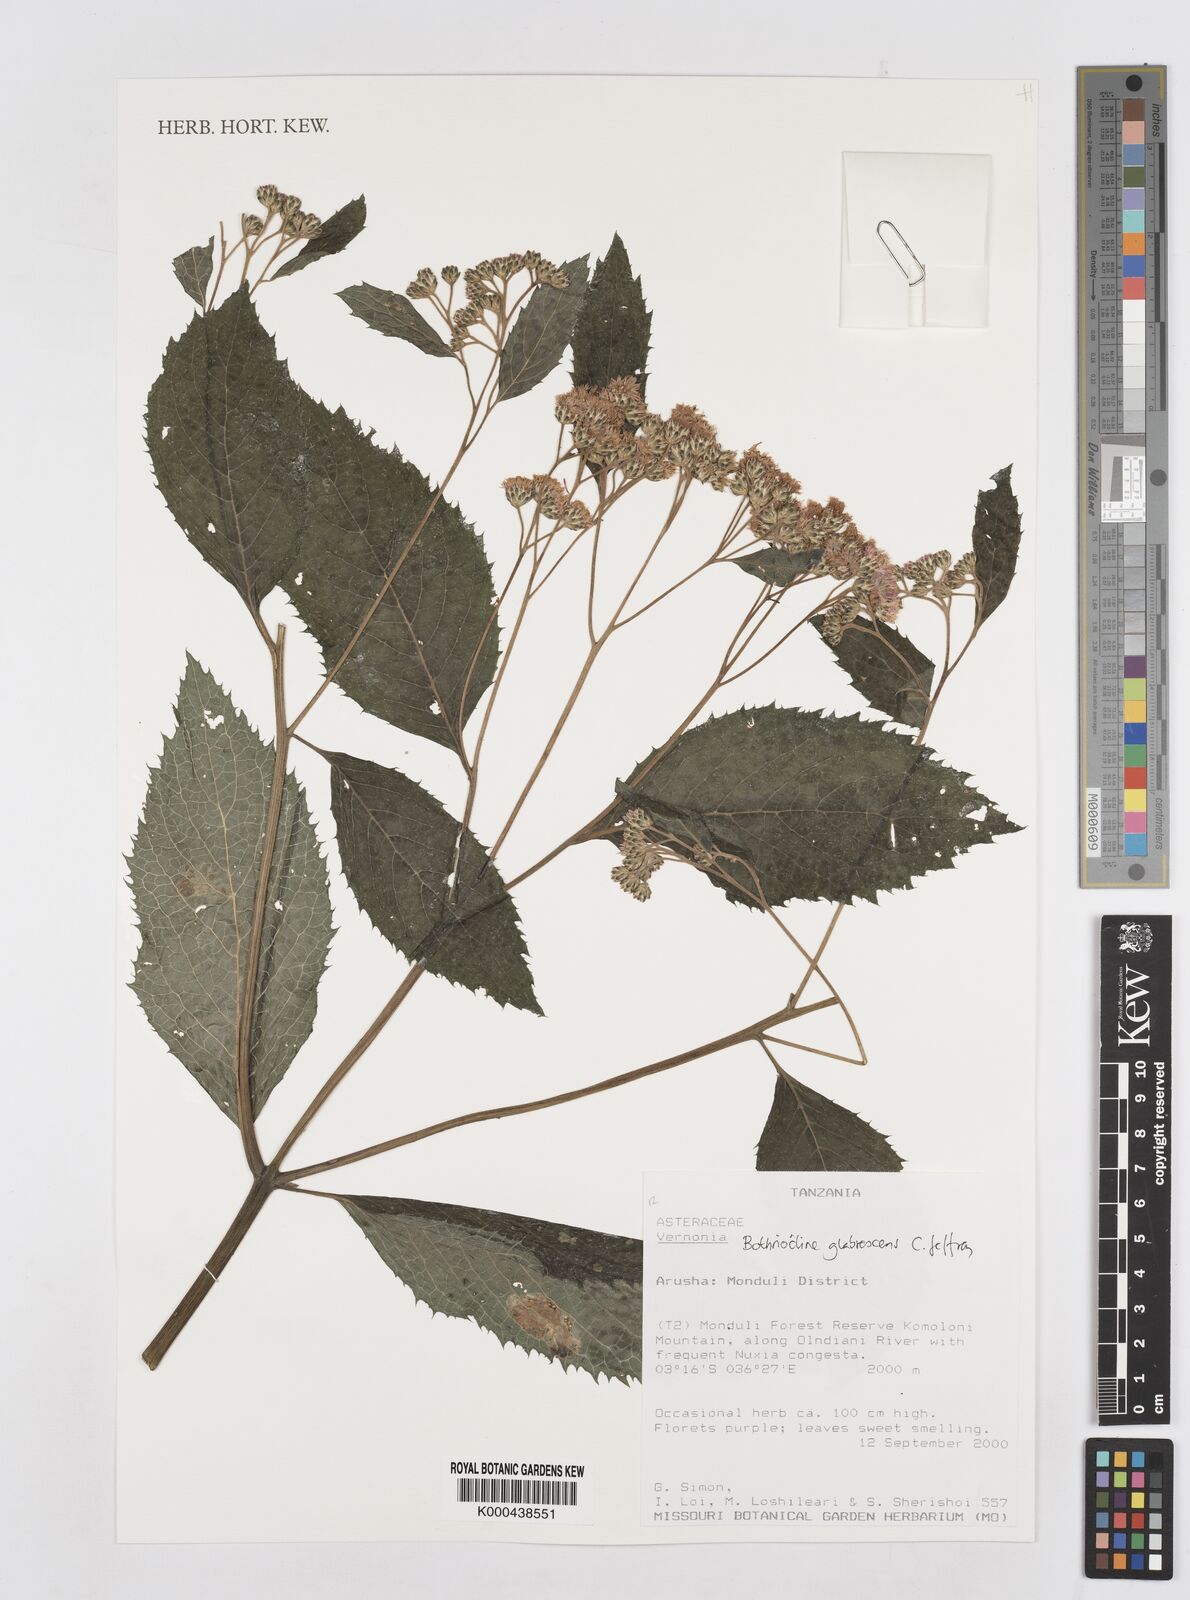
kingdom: Plantae
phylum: Tracheophyta
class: Magnoliopsida
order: Asterales
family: Asteraceae
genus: Bothriocline
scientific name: Bothriocline glabrescens
